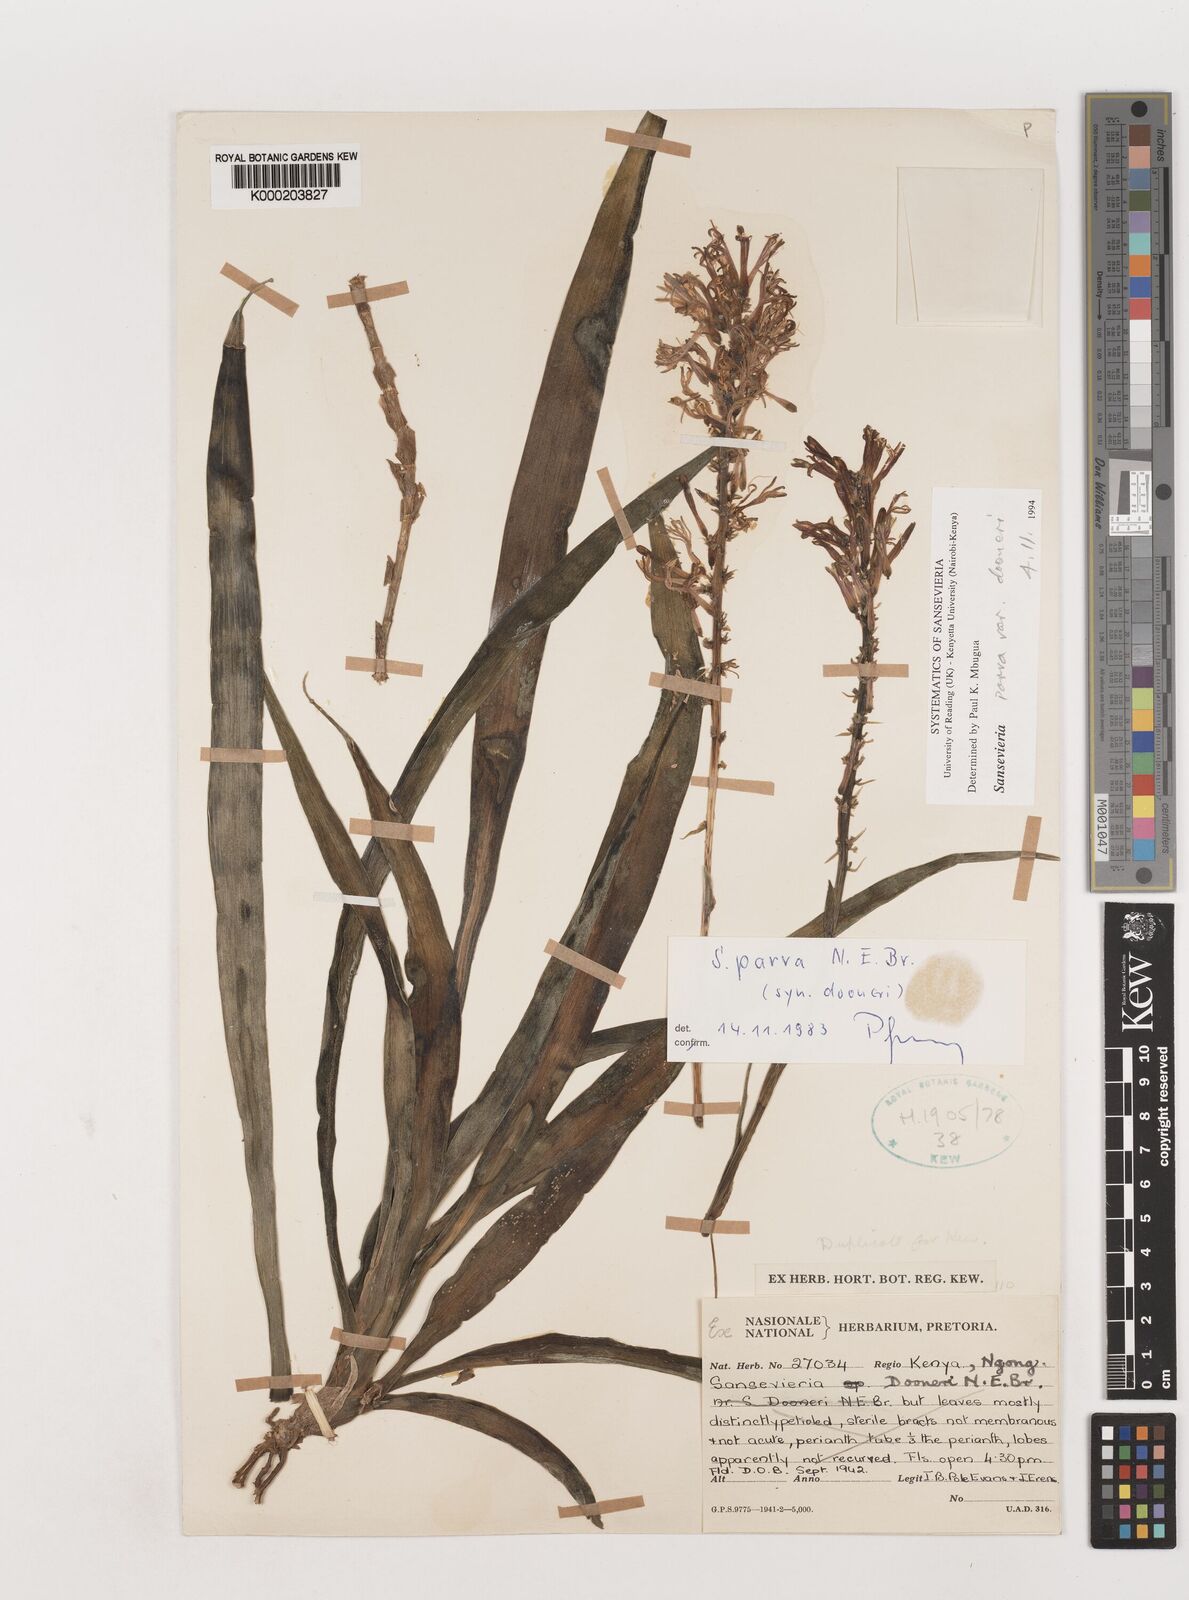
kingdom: Plantae
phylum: Tracheophyta
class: Liliopsida
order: Asparagales
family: Asparagaceae
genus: Dracaena
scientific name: Dracaena parva
